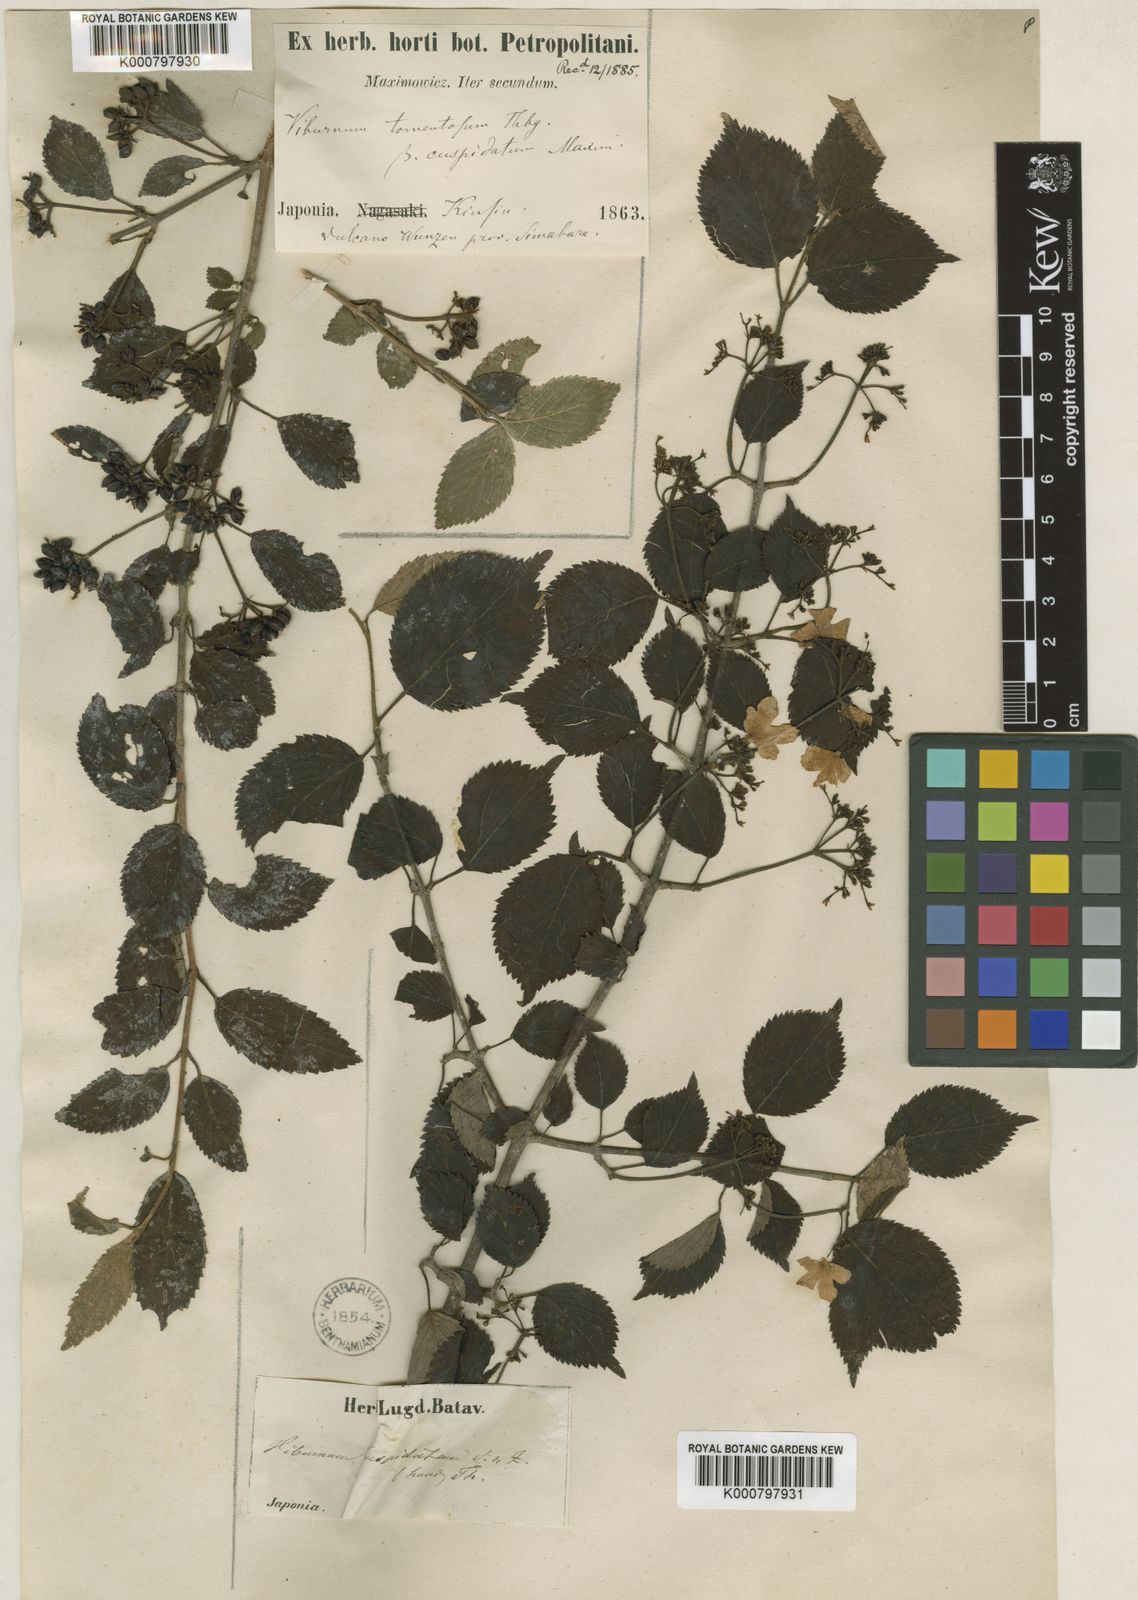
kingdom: Plantae
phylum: Tracheophyta
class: Magnoliopsida
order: Dipsacales
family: Viburnaceae
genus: Viburnum
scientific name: Viburnum
